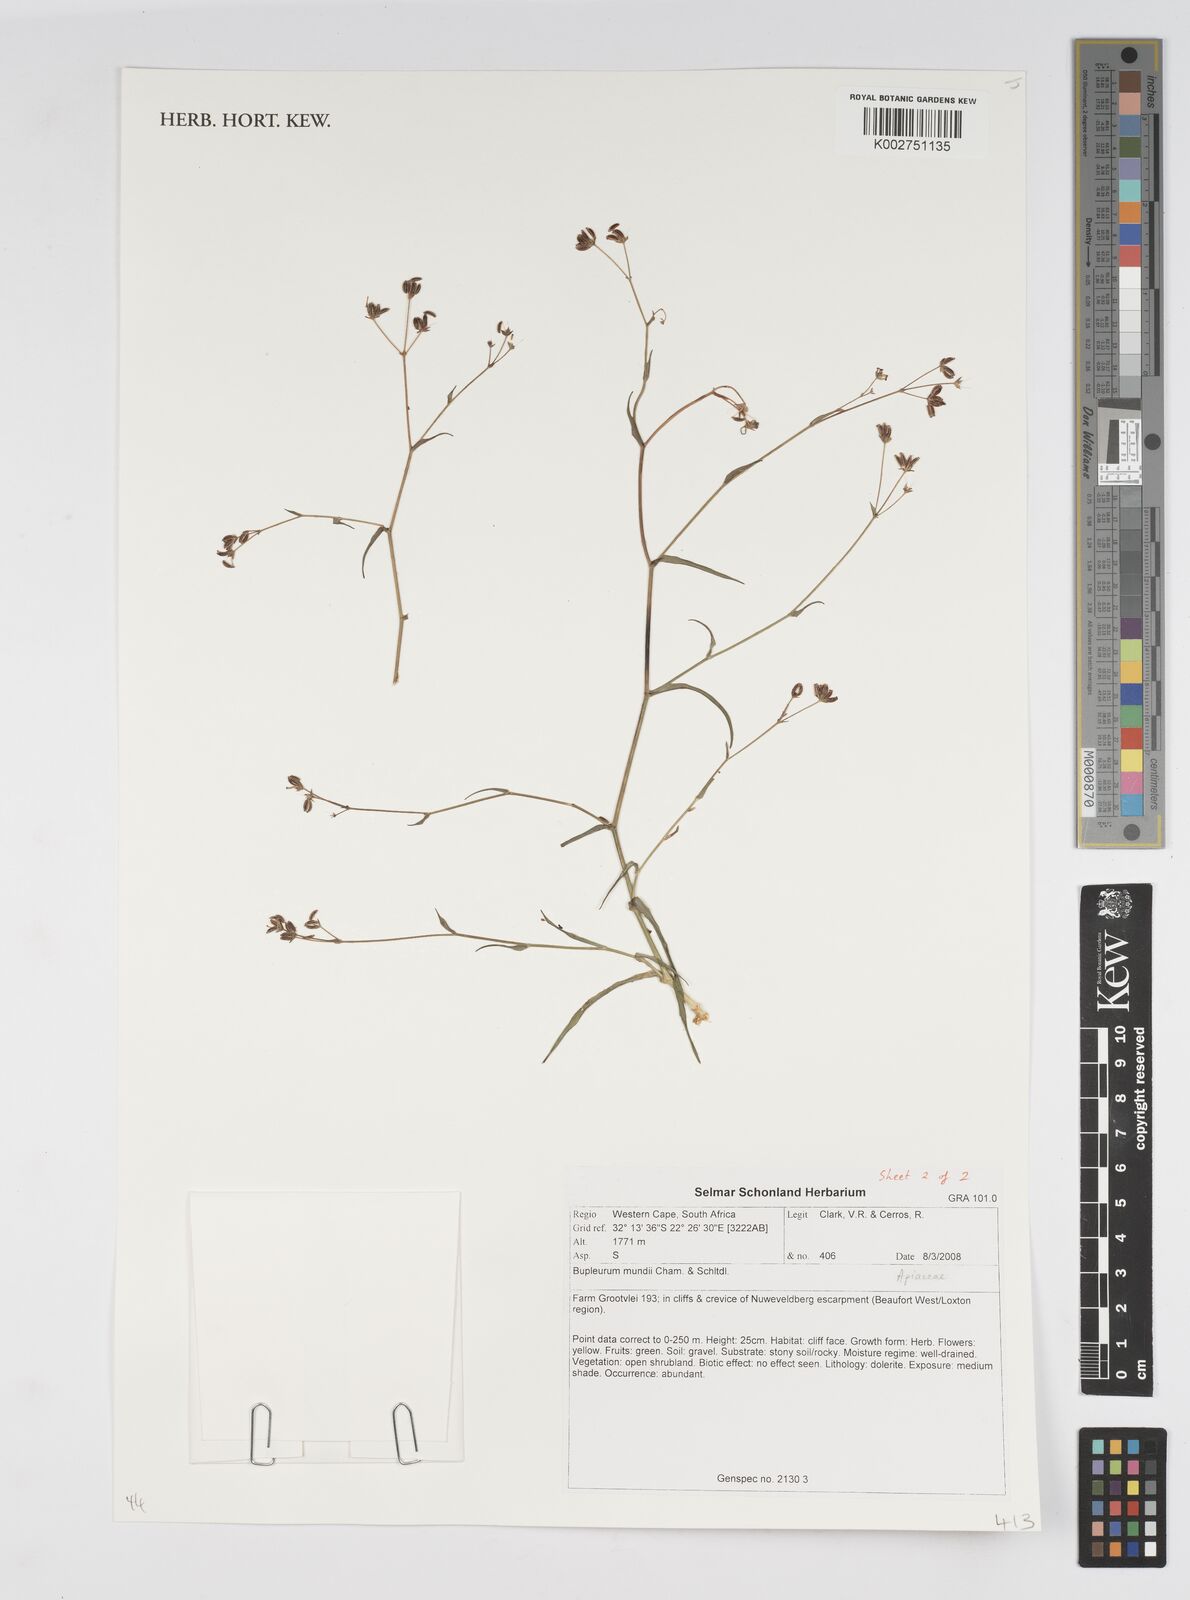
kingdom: Plantae
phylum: Tracheophyta
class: Magnoliopsida
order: Apiales
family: Apiaceae
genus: Bupleurum
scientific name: Bupleurum mundii
